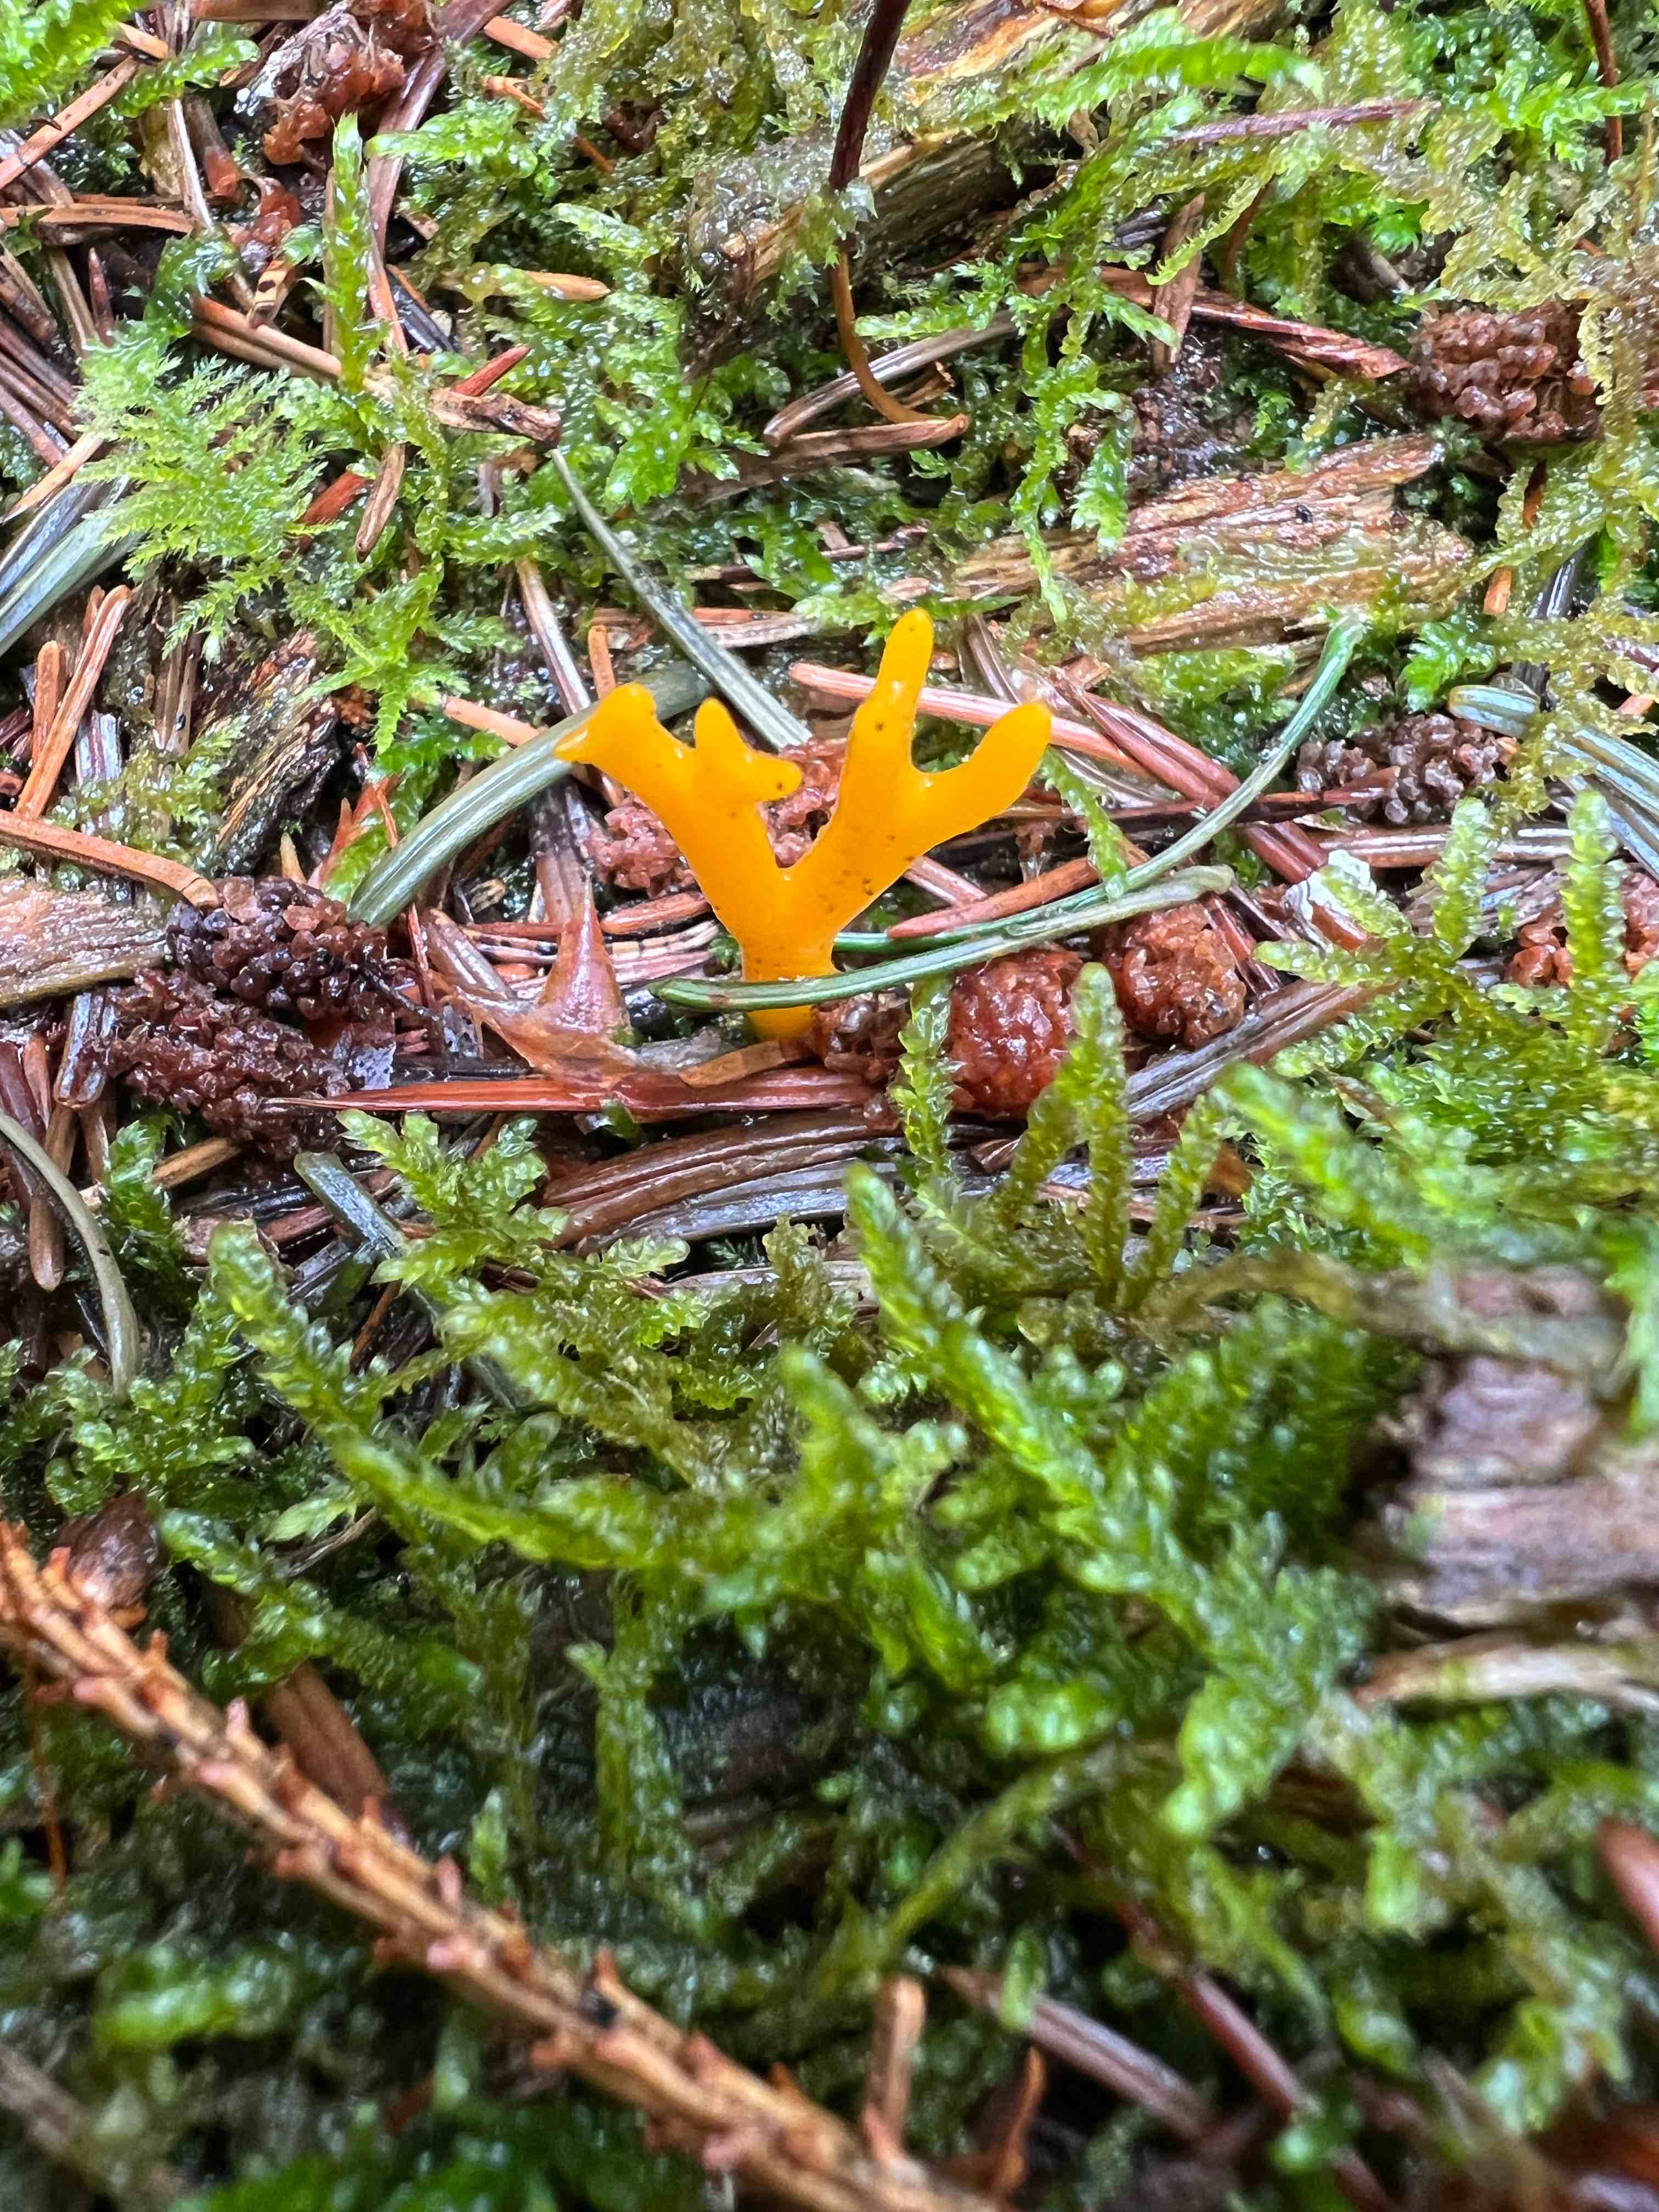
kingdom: Fungi
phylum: Basidiomycota
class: Dacrymycetes
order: Dacrymycetales
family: Dacrymycetaceae
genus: Calocera
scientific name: Calocera viscosa
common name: almindelig guldgaffel
